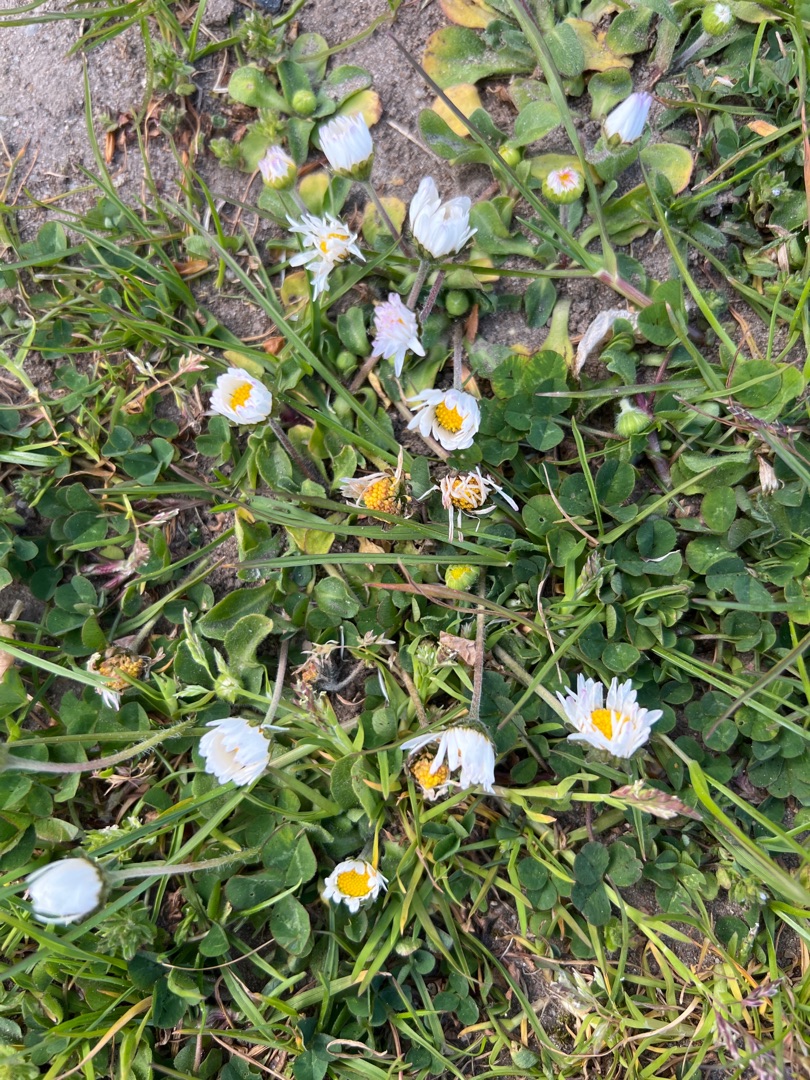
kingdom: Plantae
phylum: Tracheophyta
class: Magnoliopsida
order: Asterales
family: Asteraceae
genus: Bellis
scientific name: Bellis perennis
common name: Tusindfryd
